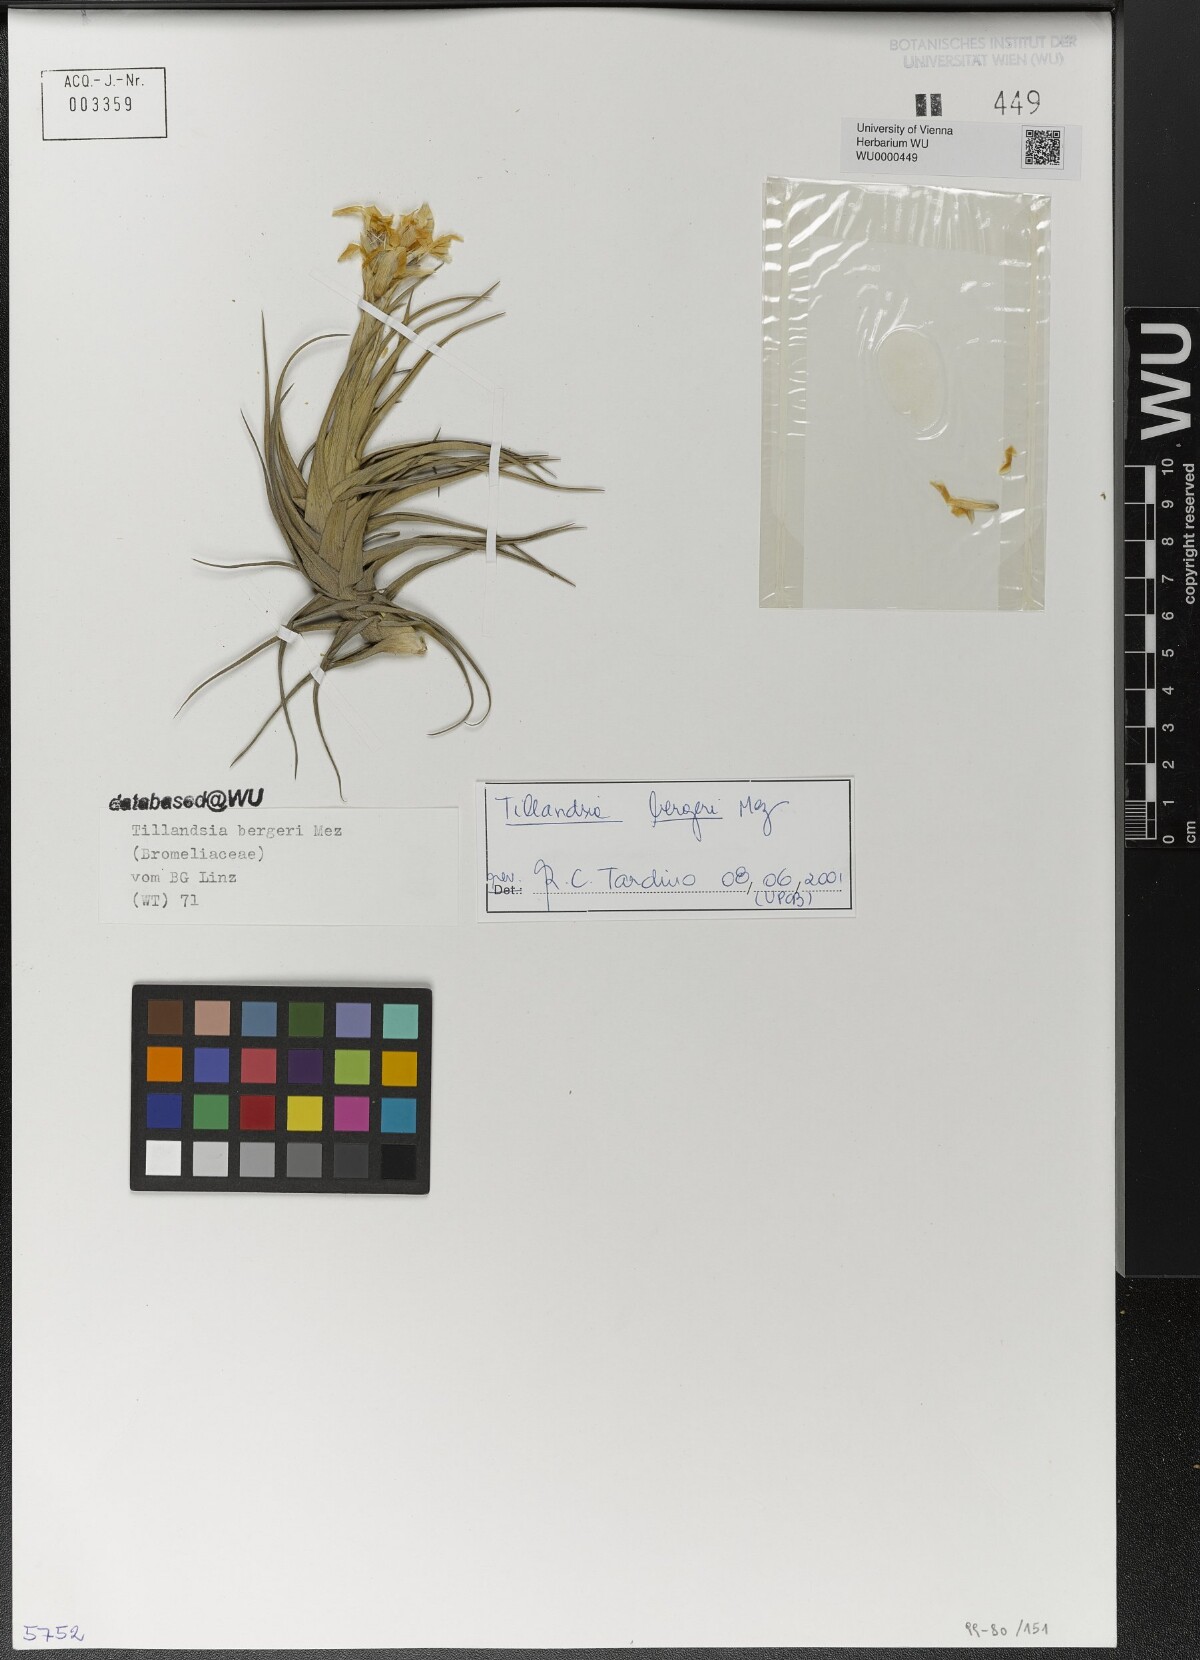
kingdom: Plantae
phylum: Tracheophyta
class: Liliopsida
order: Poales
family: Bromeliaceae
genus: Tillandsia
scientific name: Tillandsia bergeri
